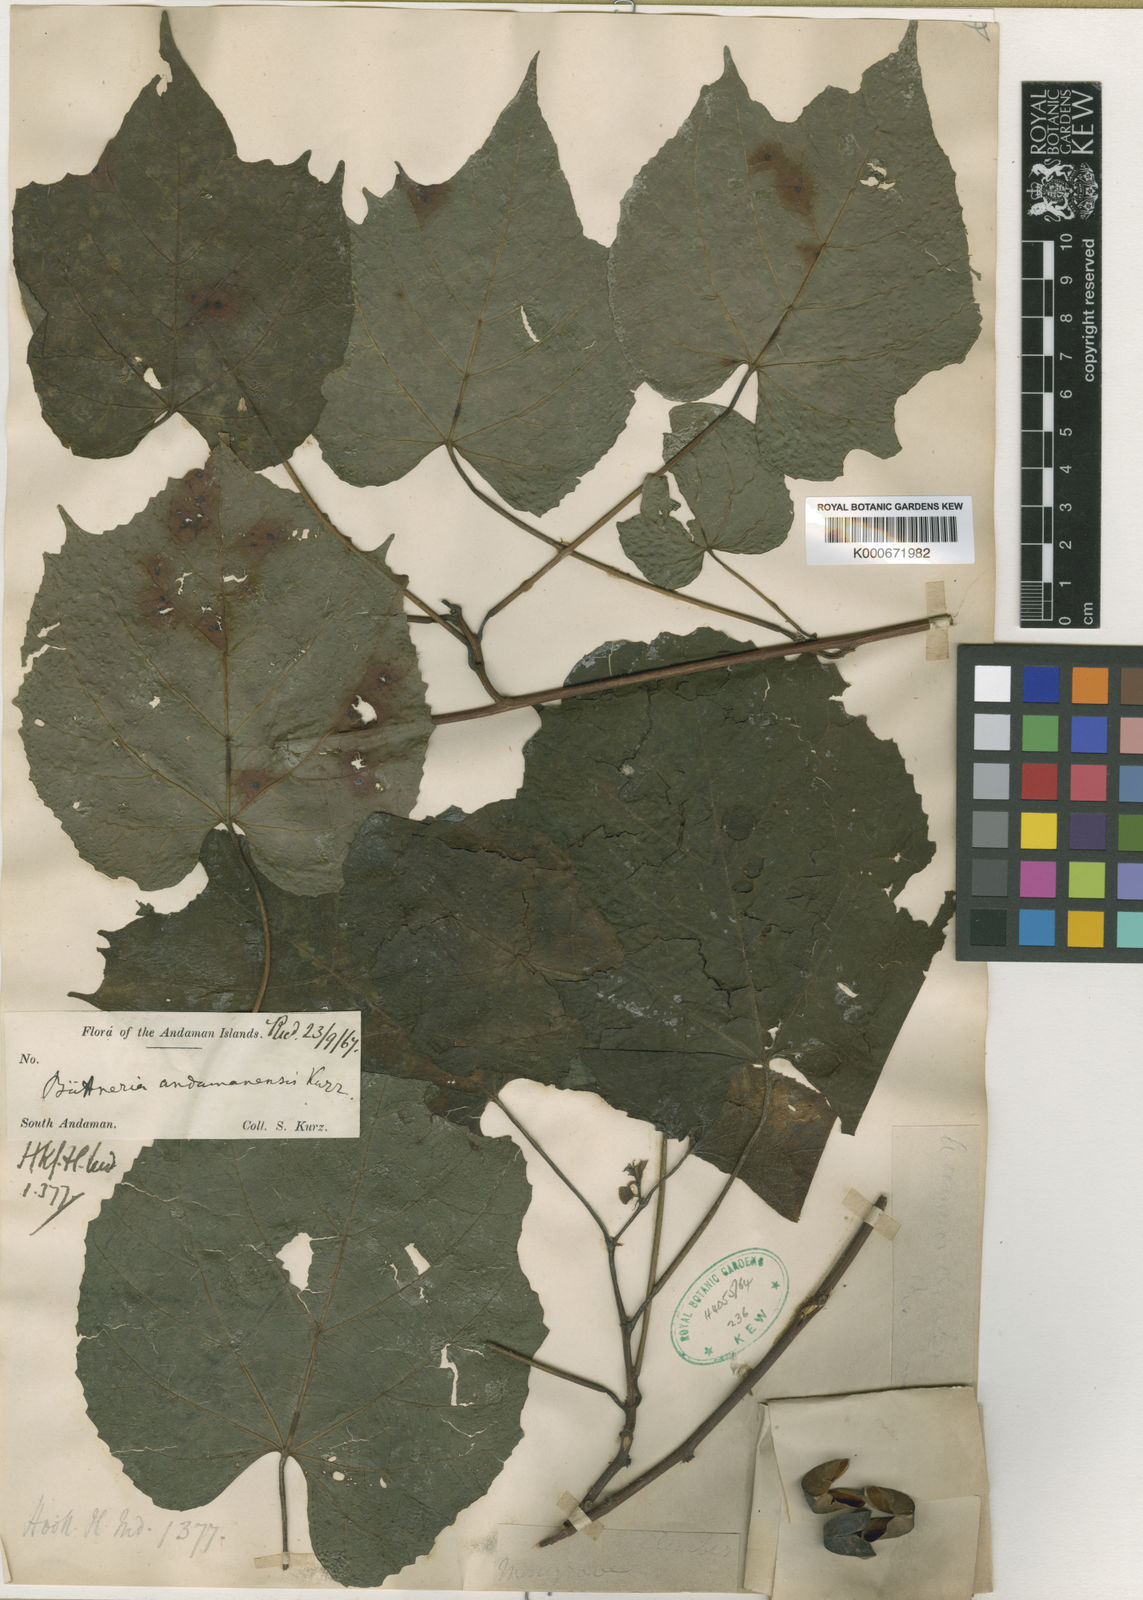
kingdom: Plantae
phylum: Tracheophyta
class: Magnoliopsida
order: Malvales
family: Malvaceae
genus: Byttneria
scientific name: Byttneria
